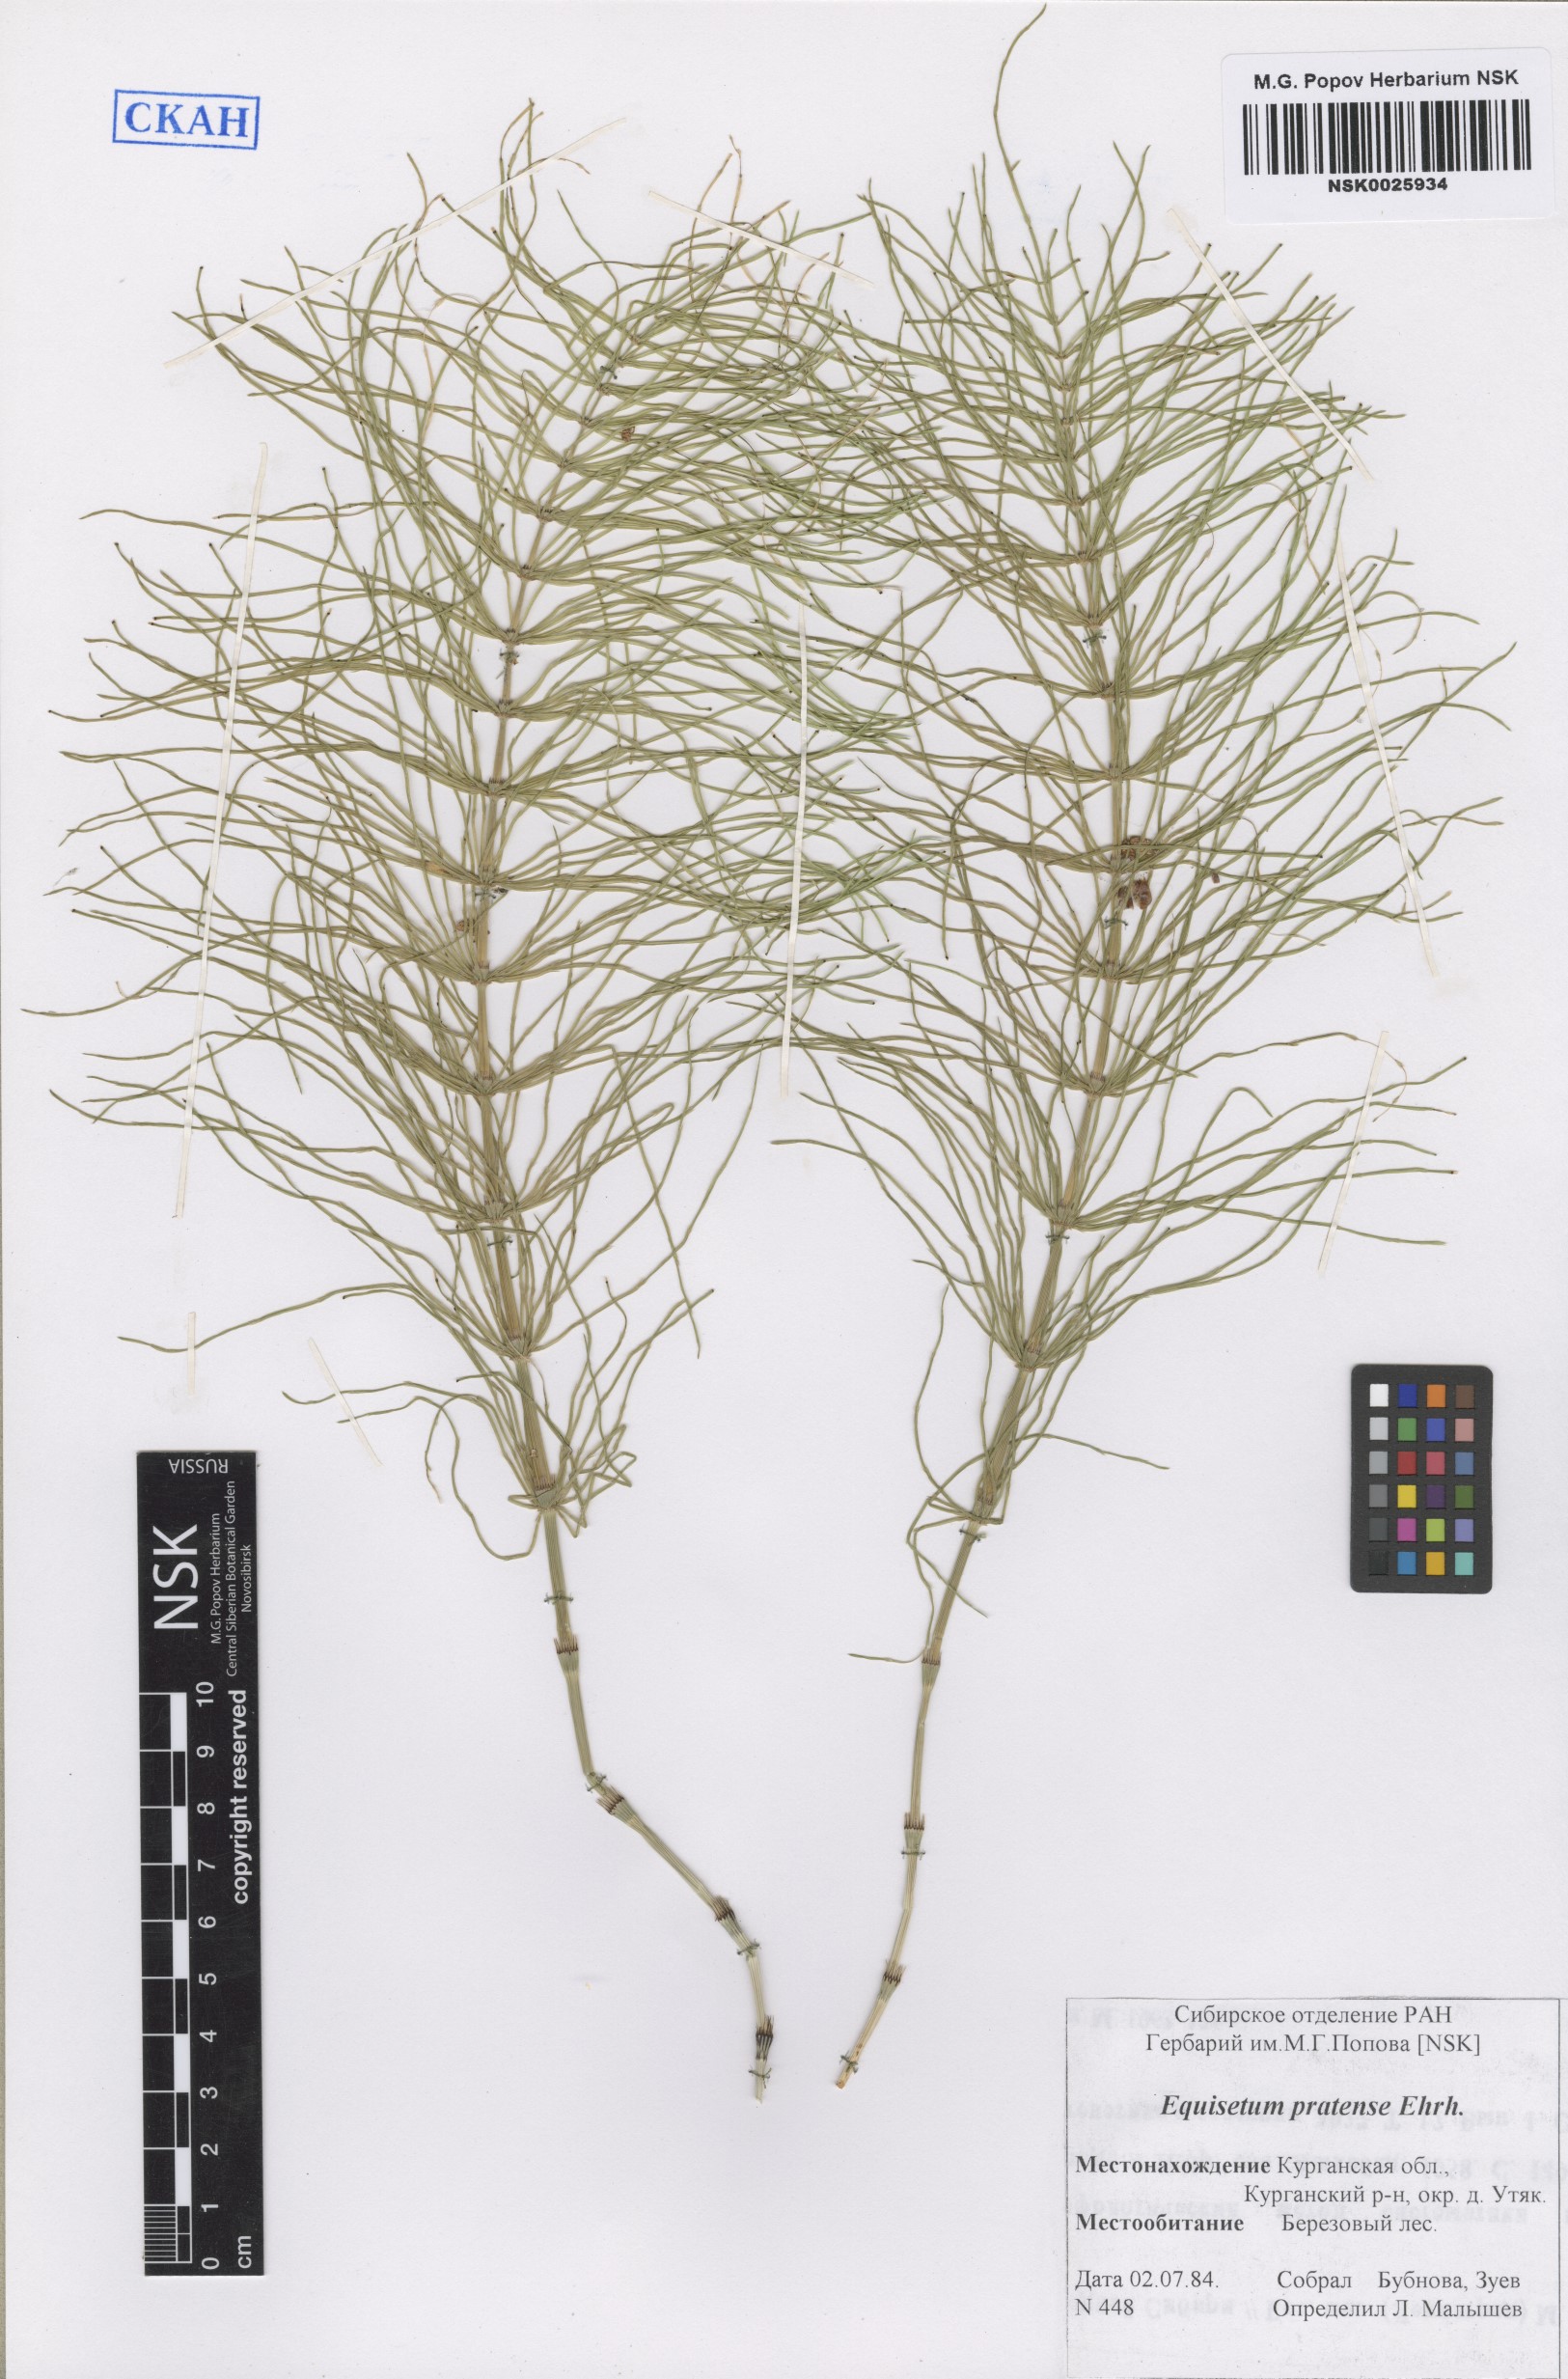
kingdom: Plantae
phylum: Tracheophyta
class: Polypodiopsida
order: Equisetales
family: Equisetaceae
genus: Equisetum
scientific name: Equisetum pratense
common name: Meadow horsetail
